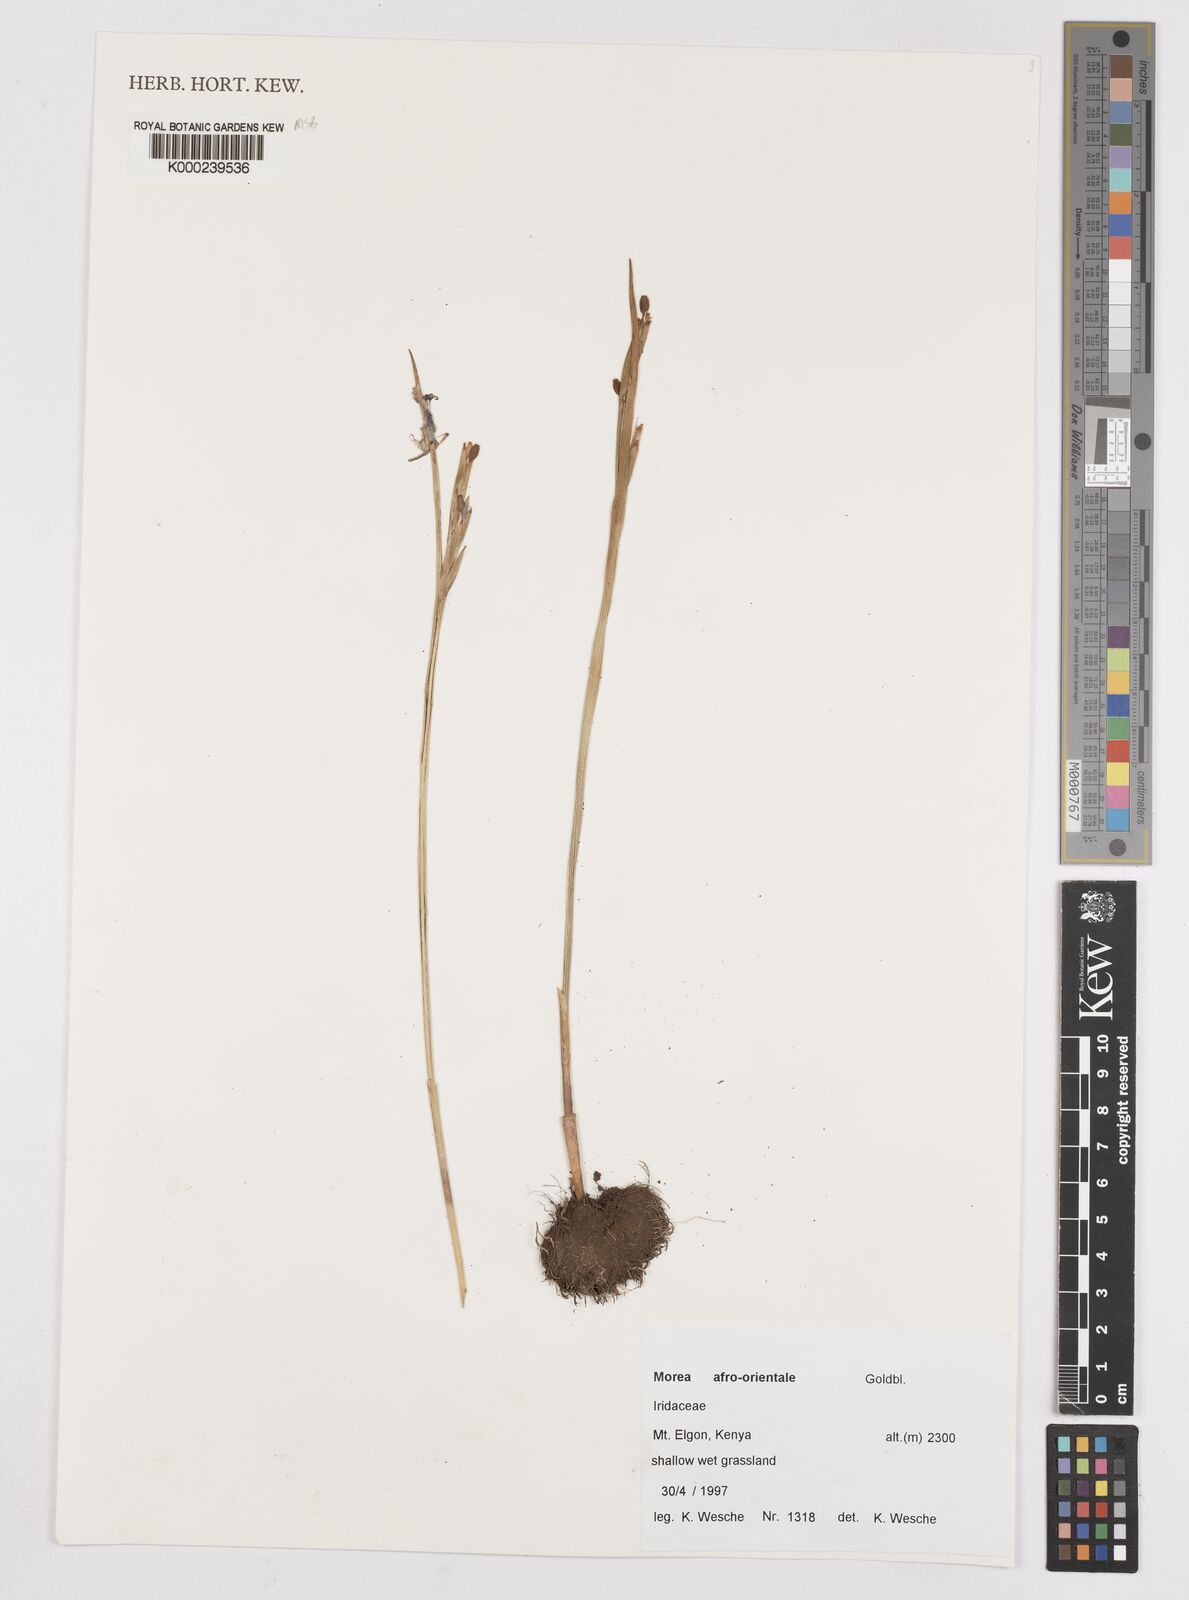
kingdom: Plantae
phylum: Tracheophyta
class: Liliopsida
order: Asparagales
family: Iridaceae
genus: Moraea
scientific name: Moraea
